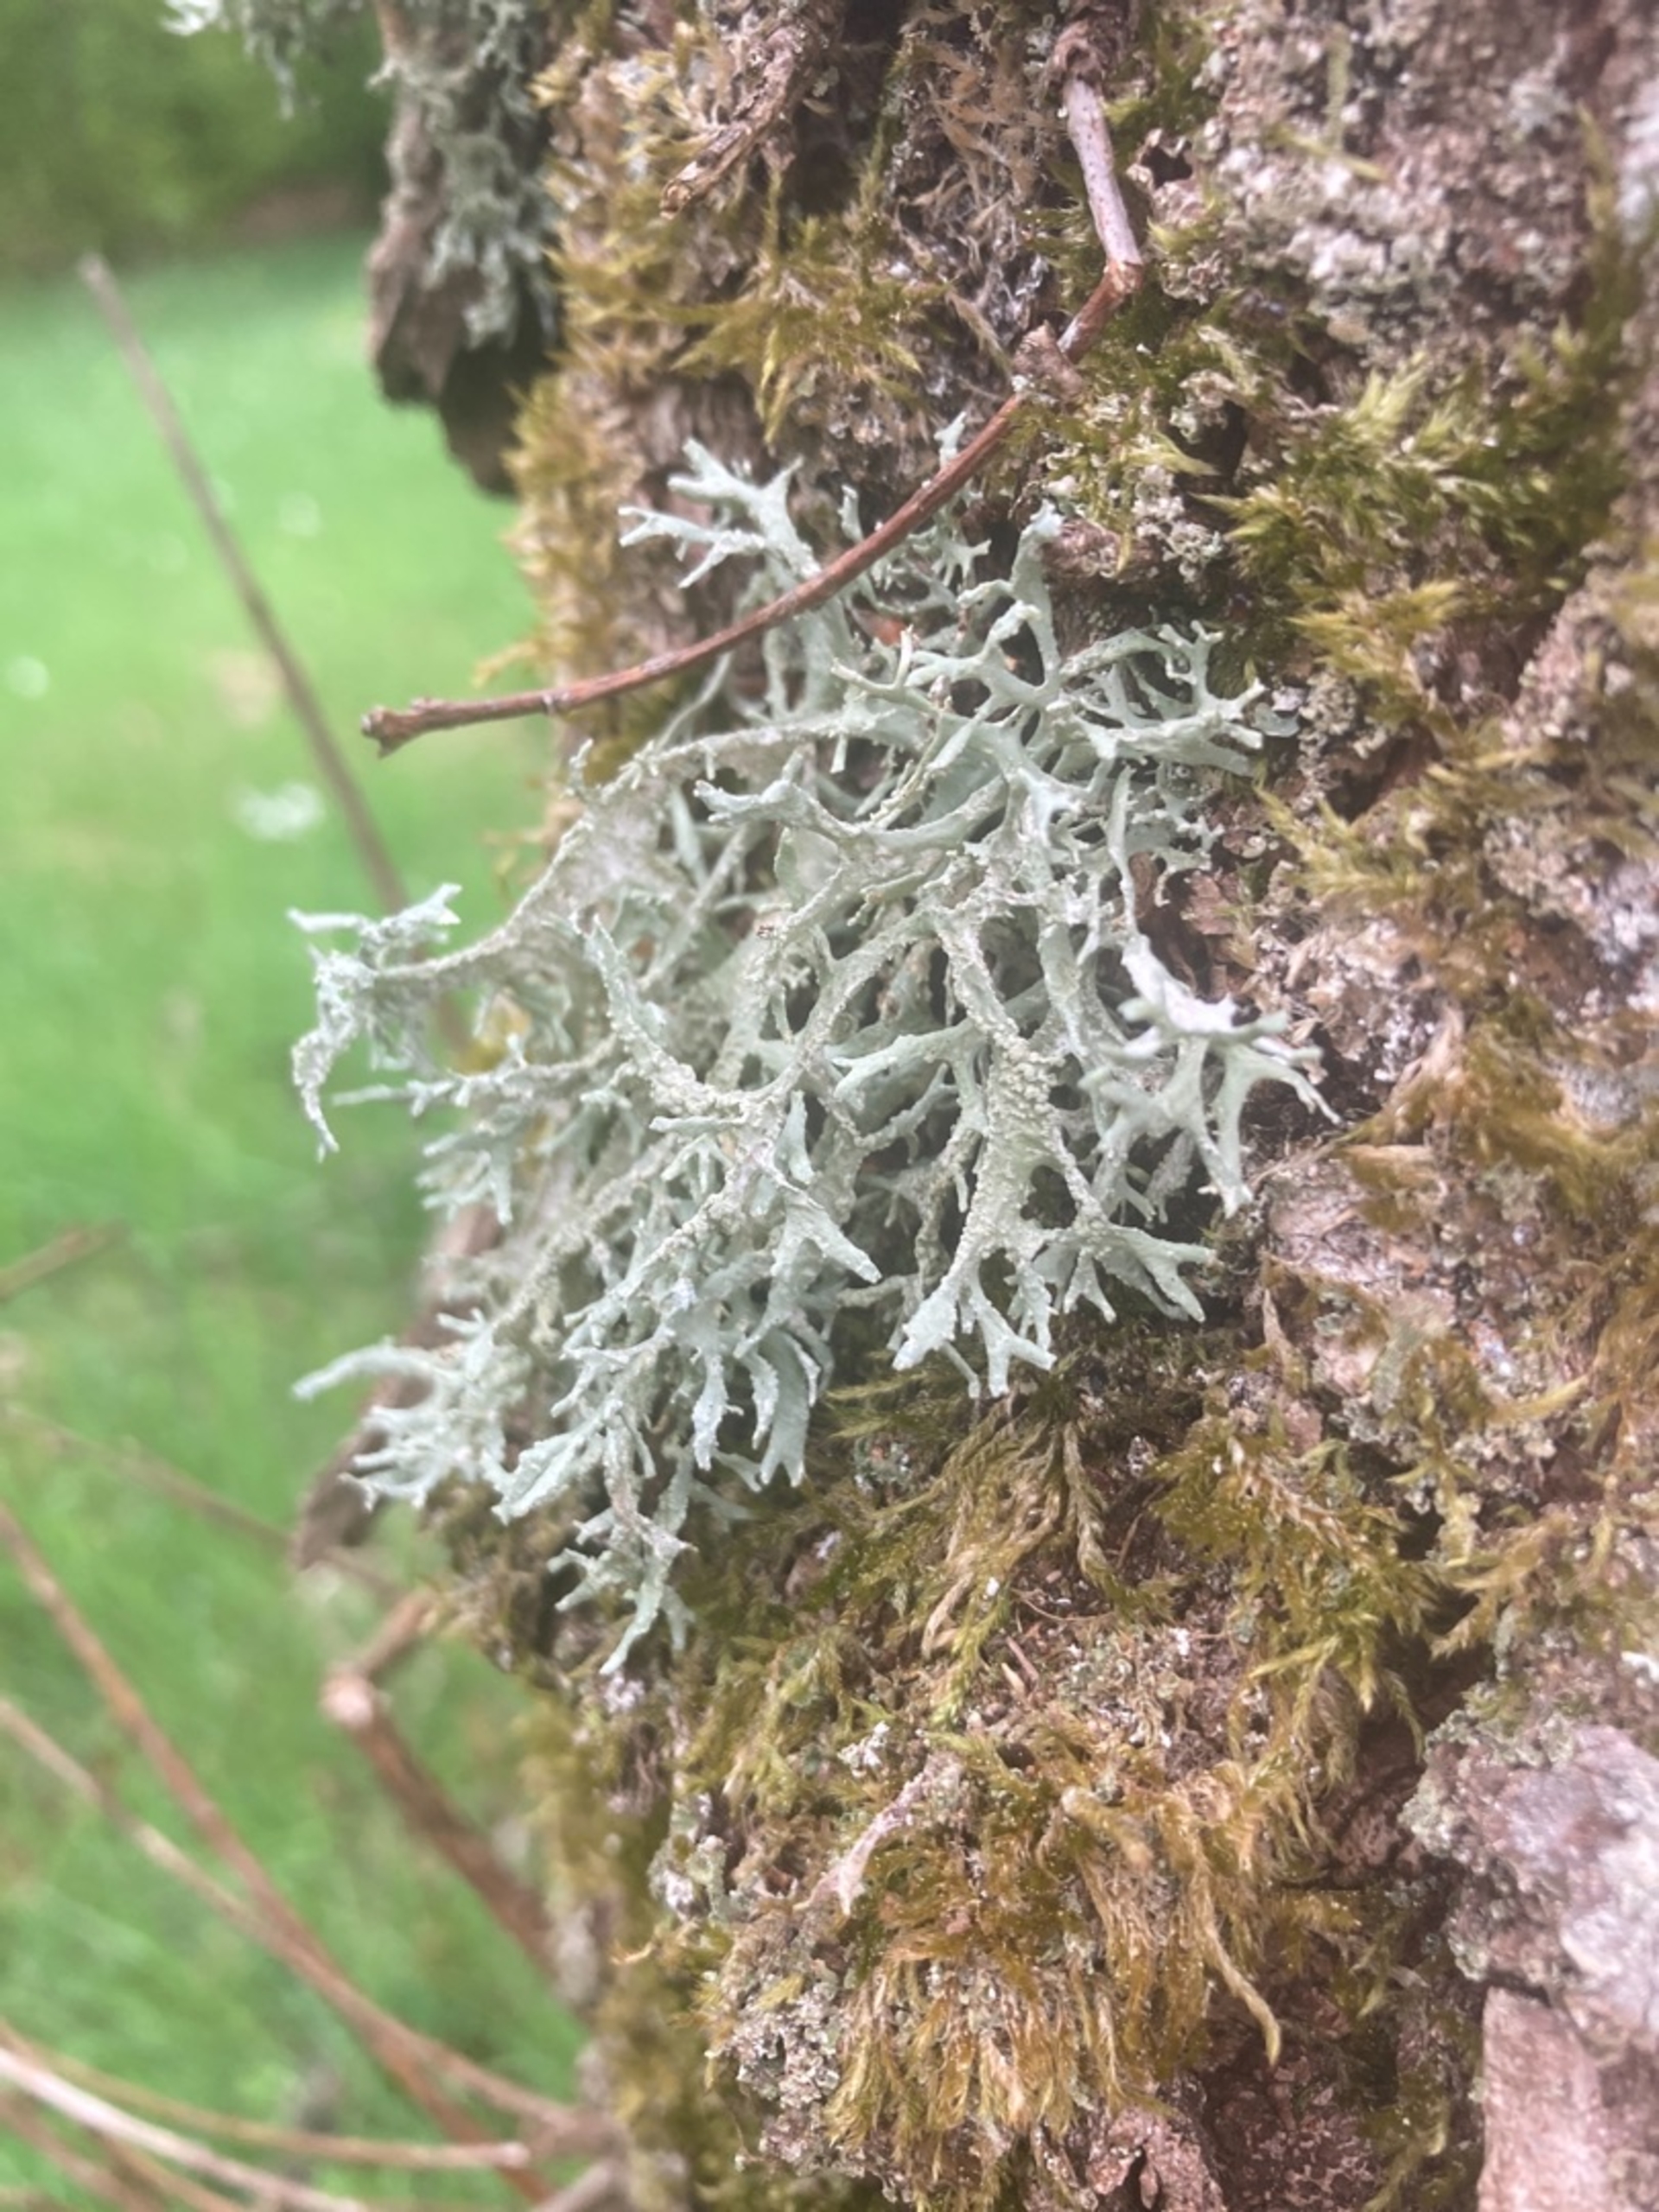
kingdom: Fungi
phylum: Ascomycota
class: Lecanoromycetes
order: Lecanorales
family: Parmeliaceae
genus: Evernia
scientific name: Evernia prunastri
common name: Almindelig slåenlav
